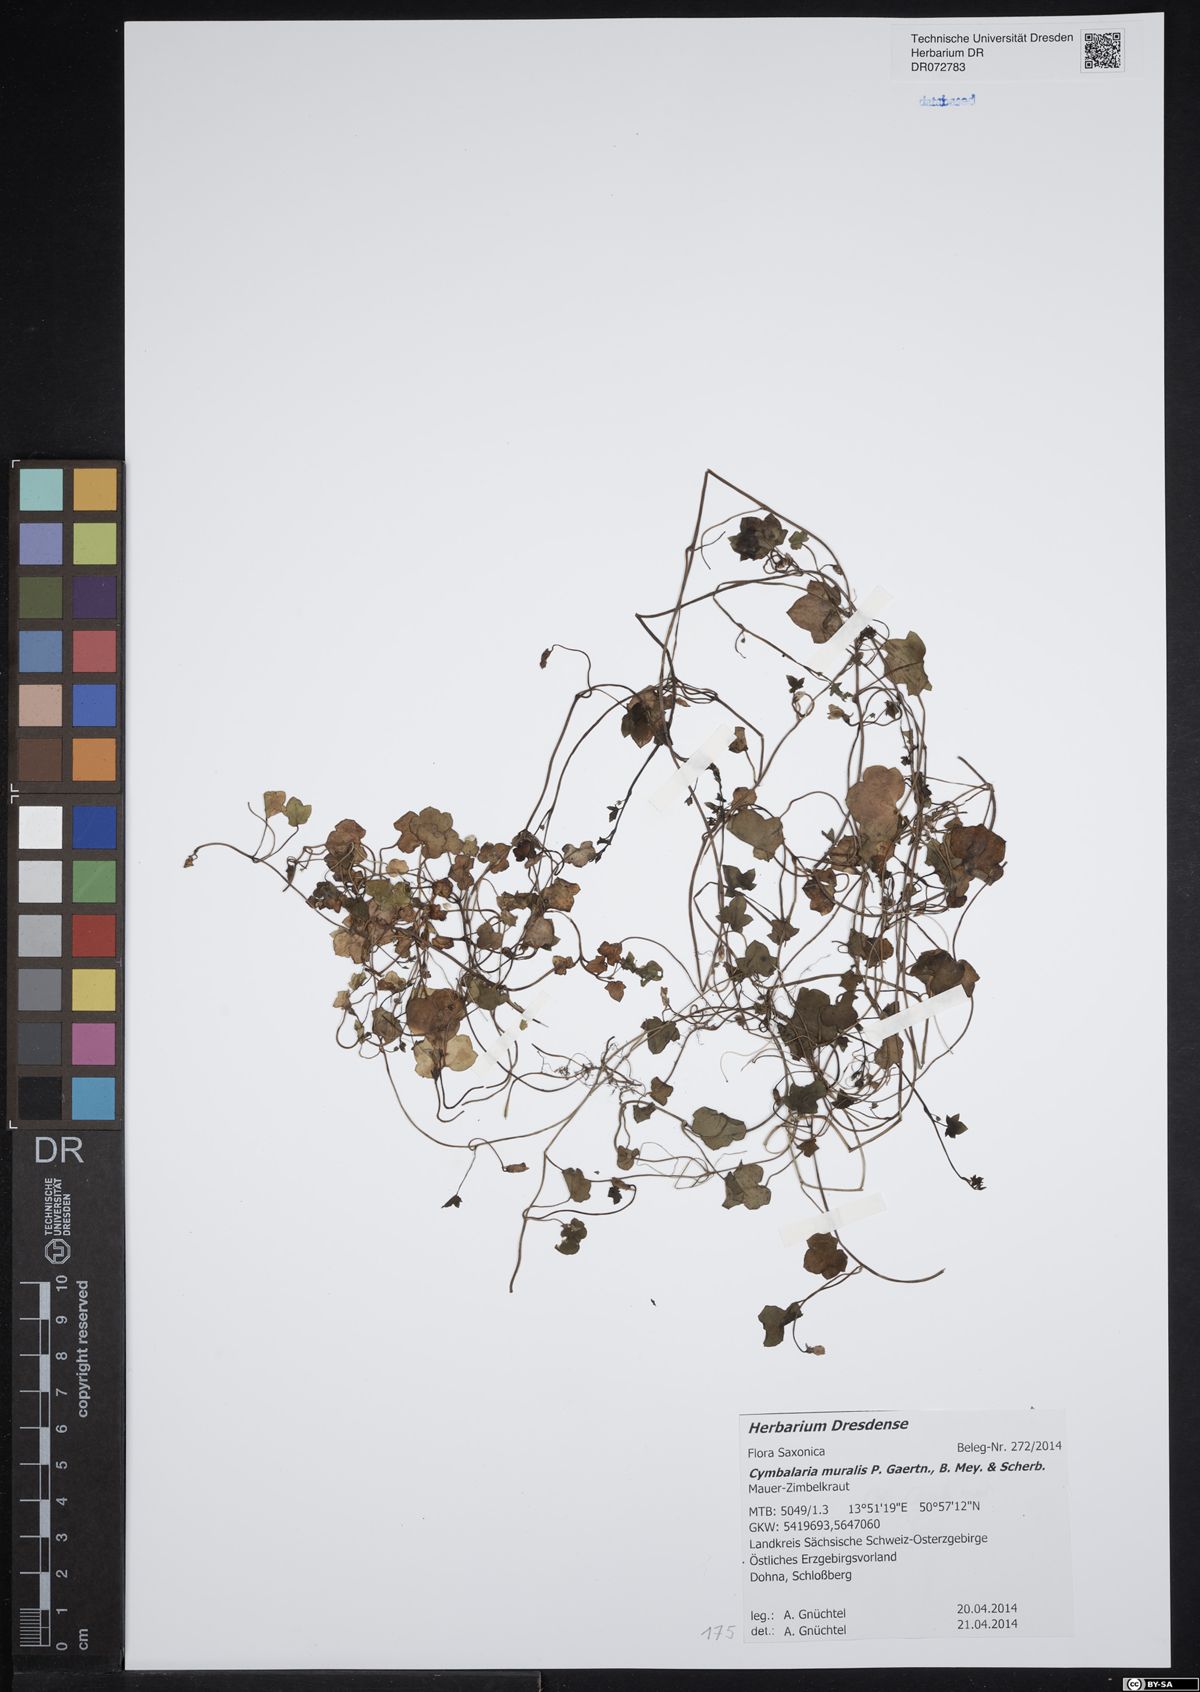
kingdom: Plantae
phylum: Tracheophyta
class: Magnoliopsida
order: Lamiales
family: Plantaginaceae
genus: Cymbalaria
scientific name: Cymbalaria muralis
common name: Ivy-leaved toadflax
